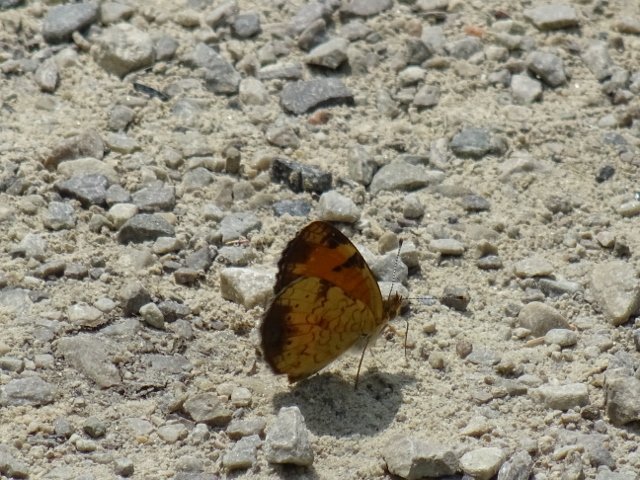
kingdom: Animalia
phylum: Arthropoda
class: Insecta
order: Lepidoptera
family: Nymphalidae
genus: Phyciodes
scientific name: Phyciodes tharos
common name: Northern Crescent
